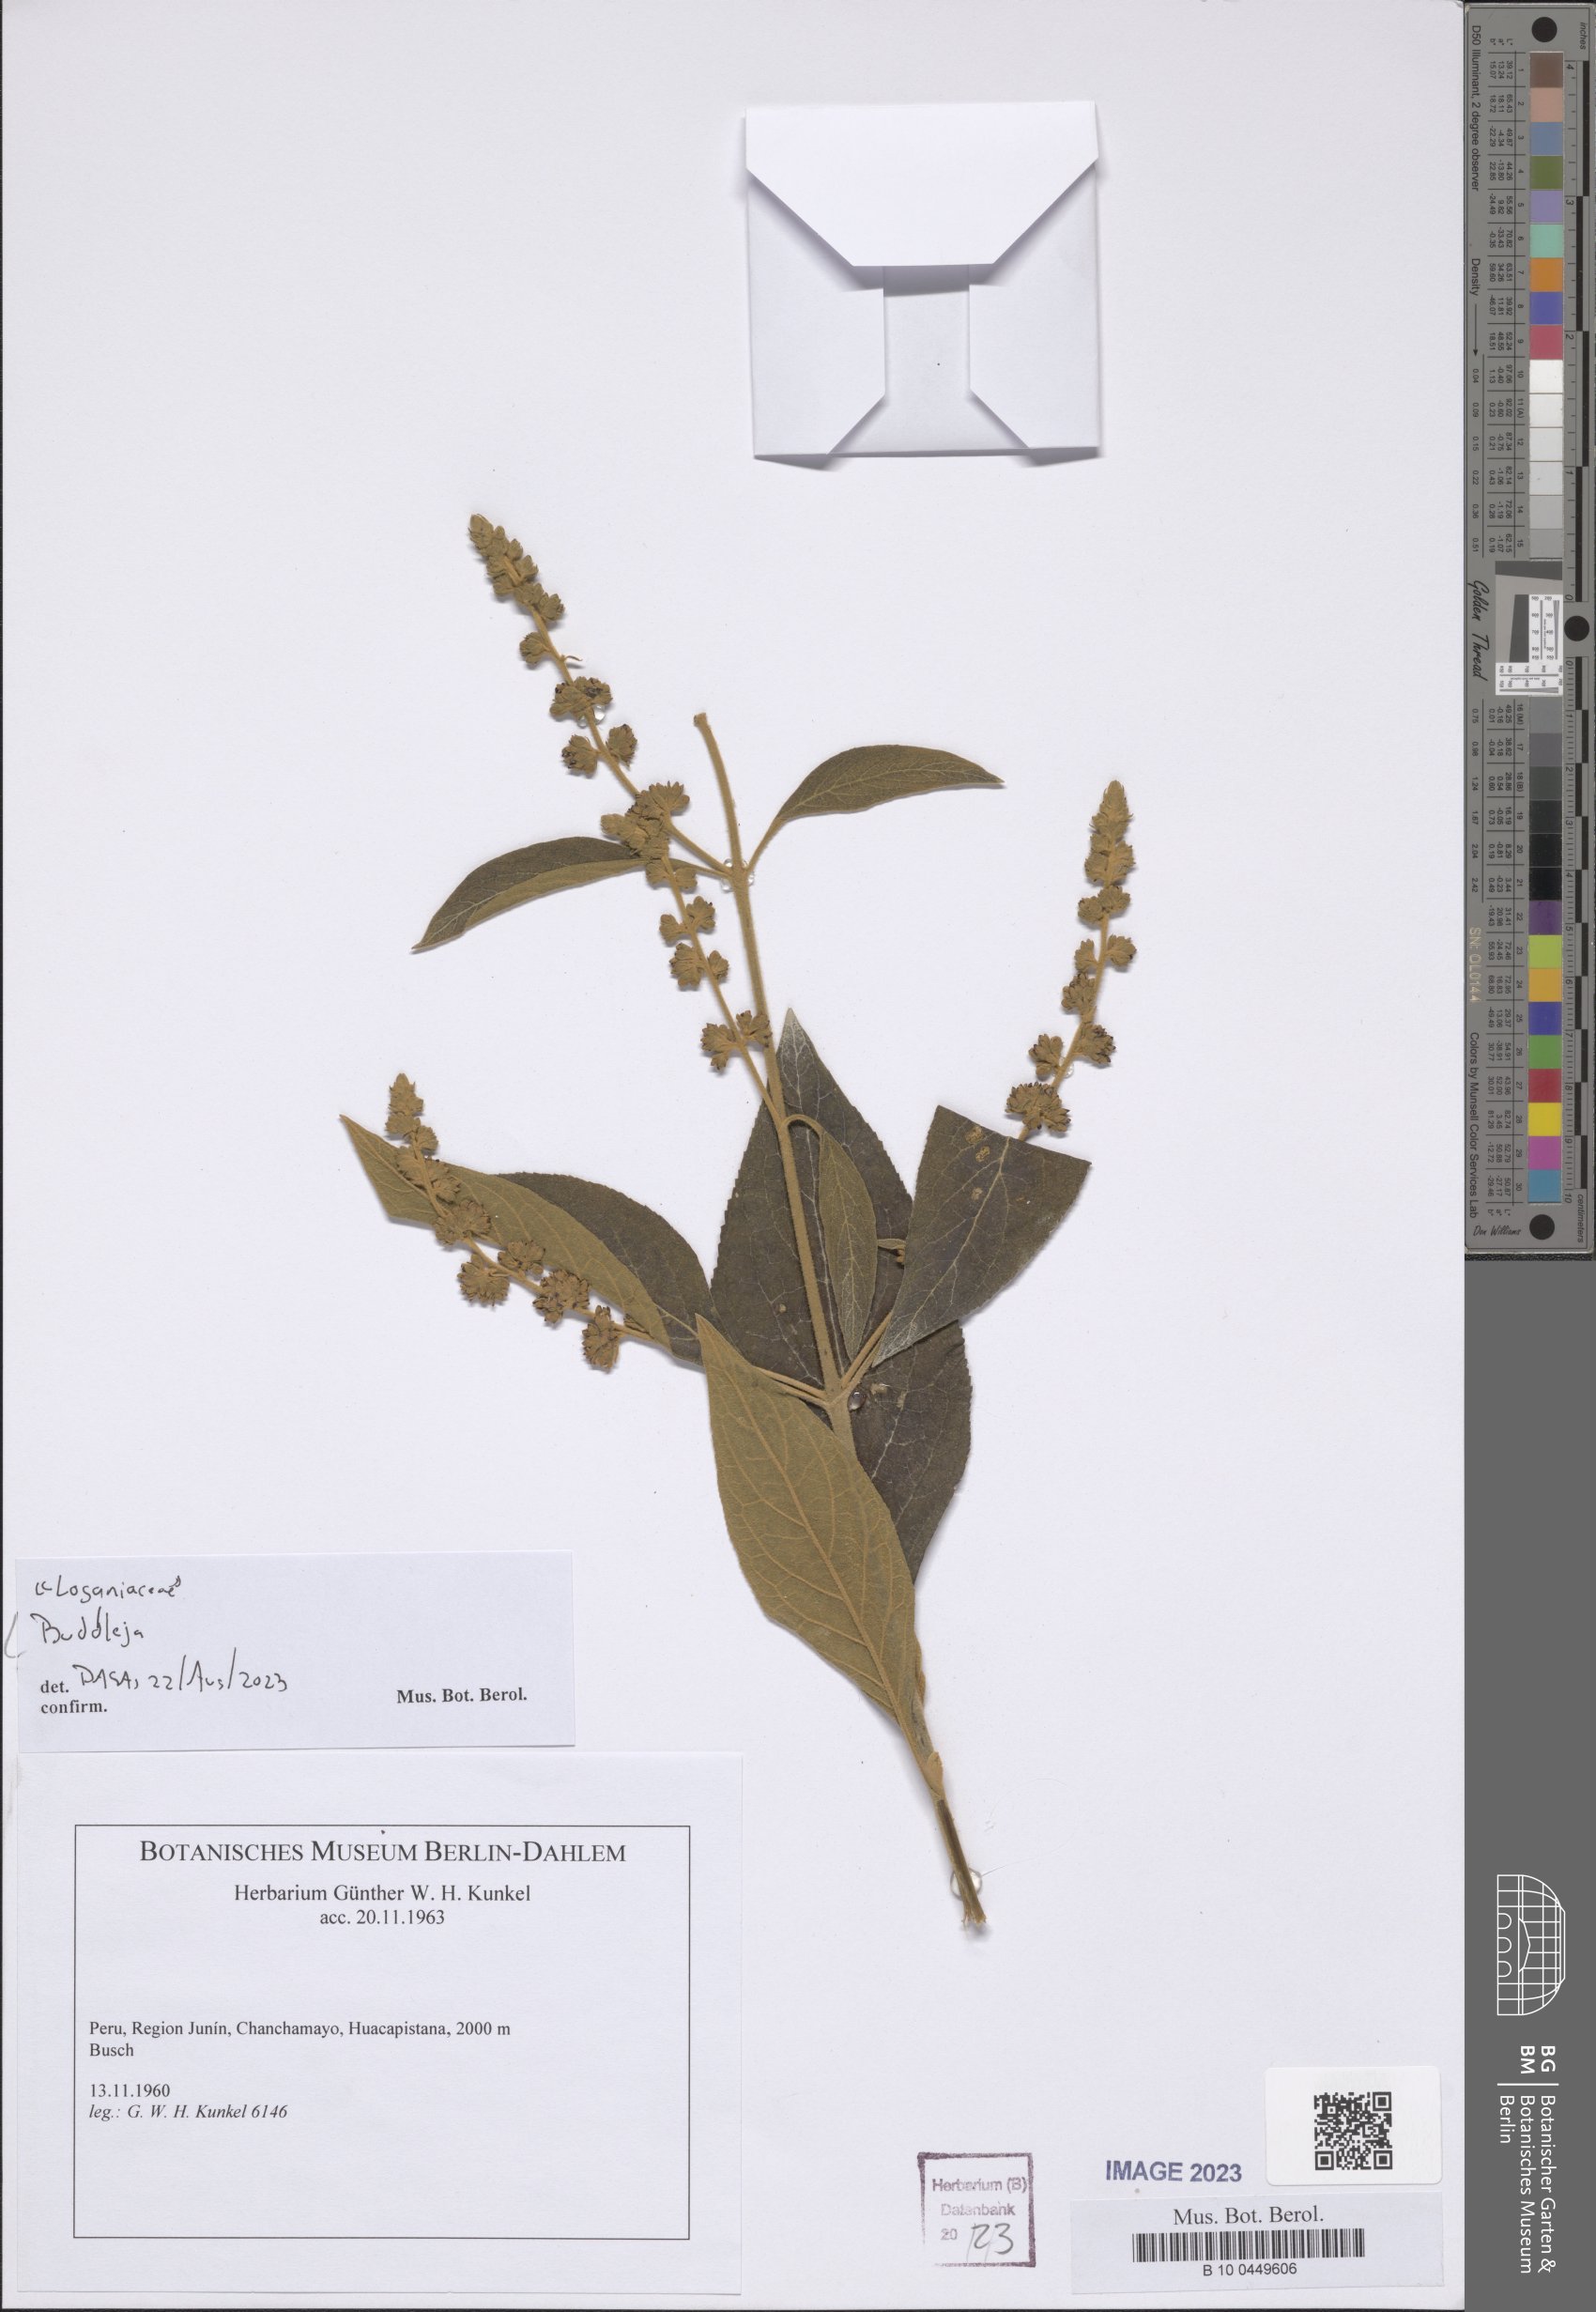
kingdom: Plantae
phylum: Tracheophyta
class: Magnoliopsida
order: Lamiales
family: Scrophulariaceae
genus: Buddleja
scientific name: Buddleja
